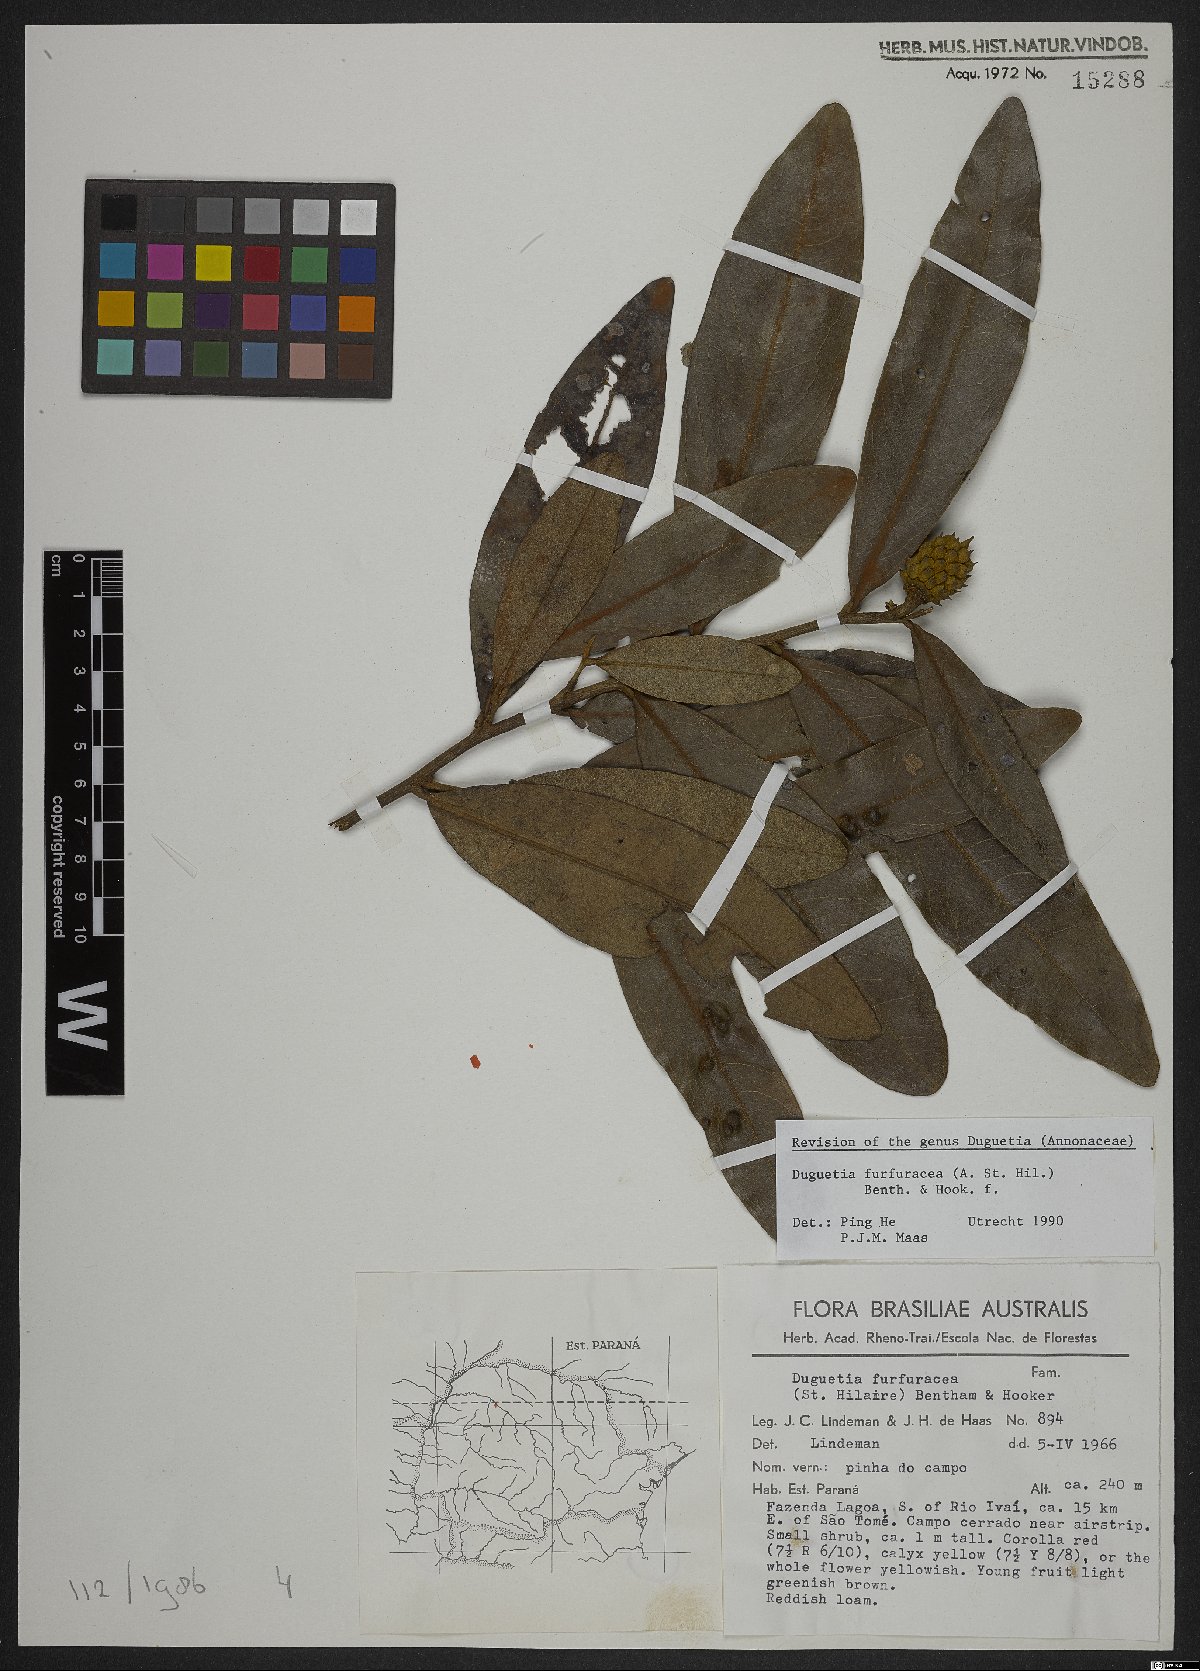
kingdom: Plantae
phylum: Tracheophyta
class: Magnoliopsida
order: Magnoliales
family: Annonaceae
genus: Duguetia
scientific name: Duguetia furfuracea
